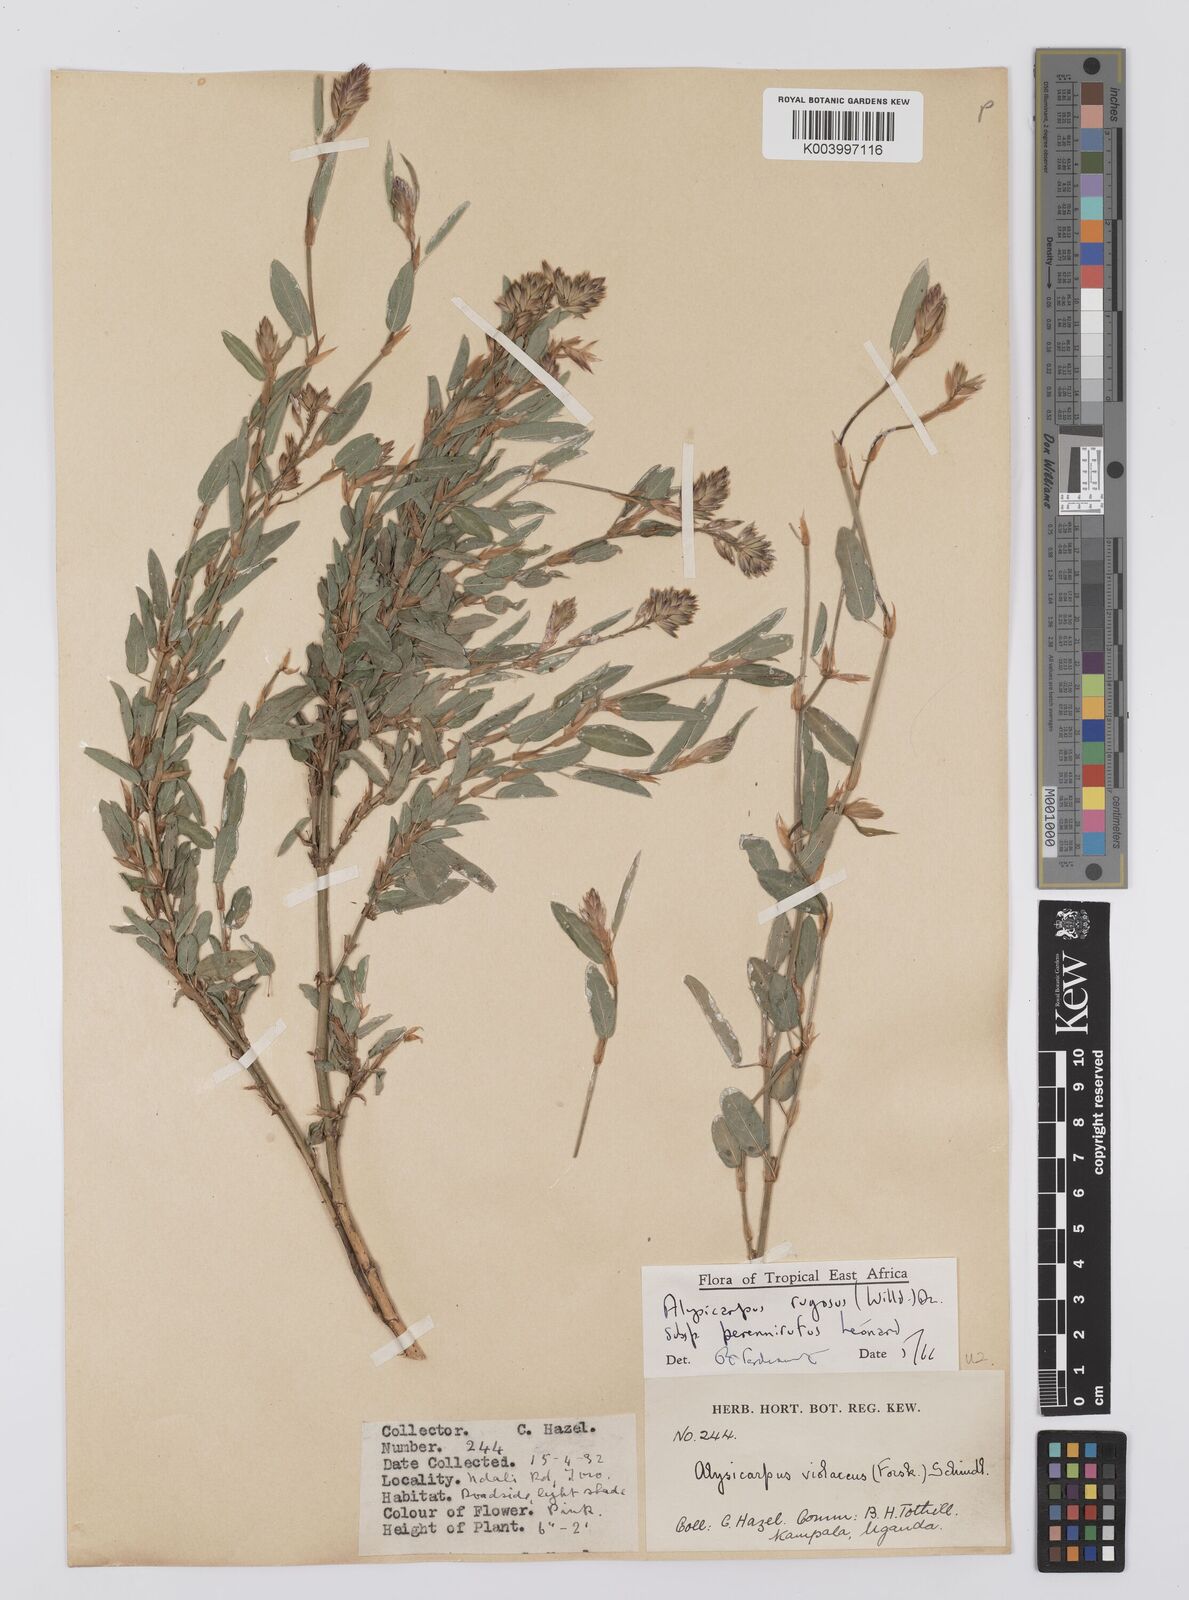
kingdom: Plantae
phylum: Tracheophyta
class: Magnoliopsida
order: Fabales
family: Fabaceae
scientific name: Fabaceae
